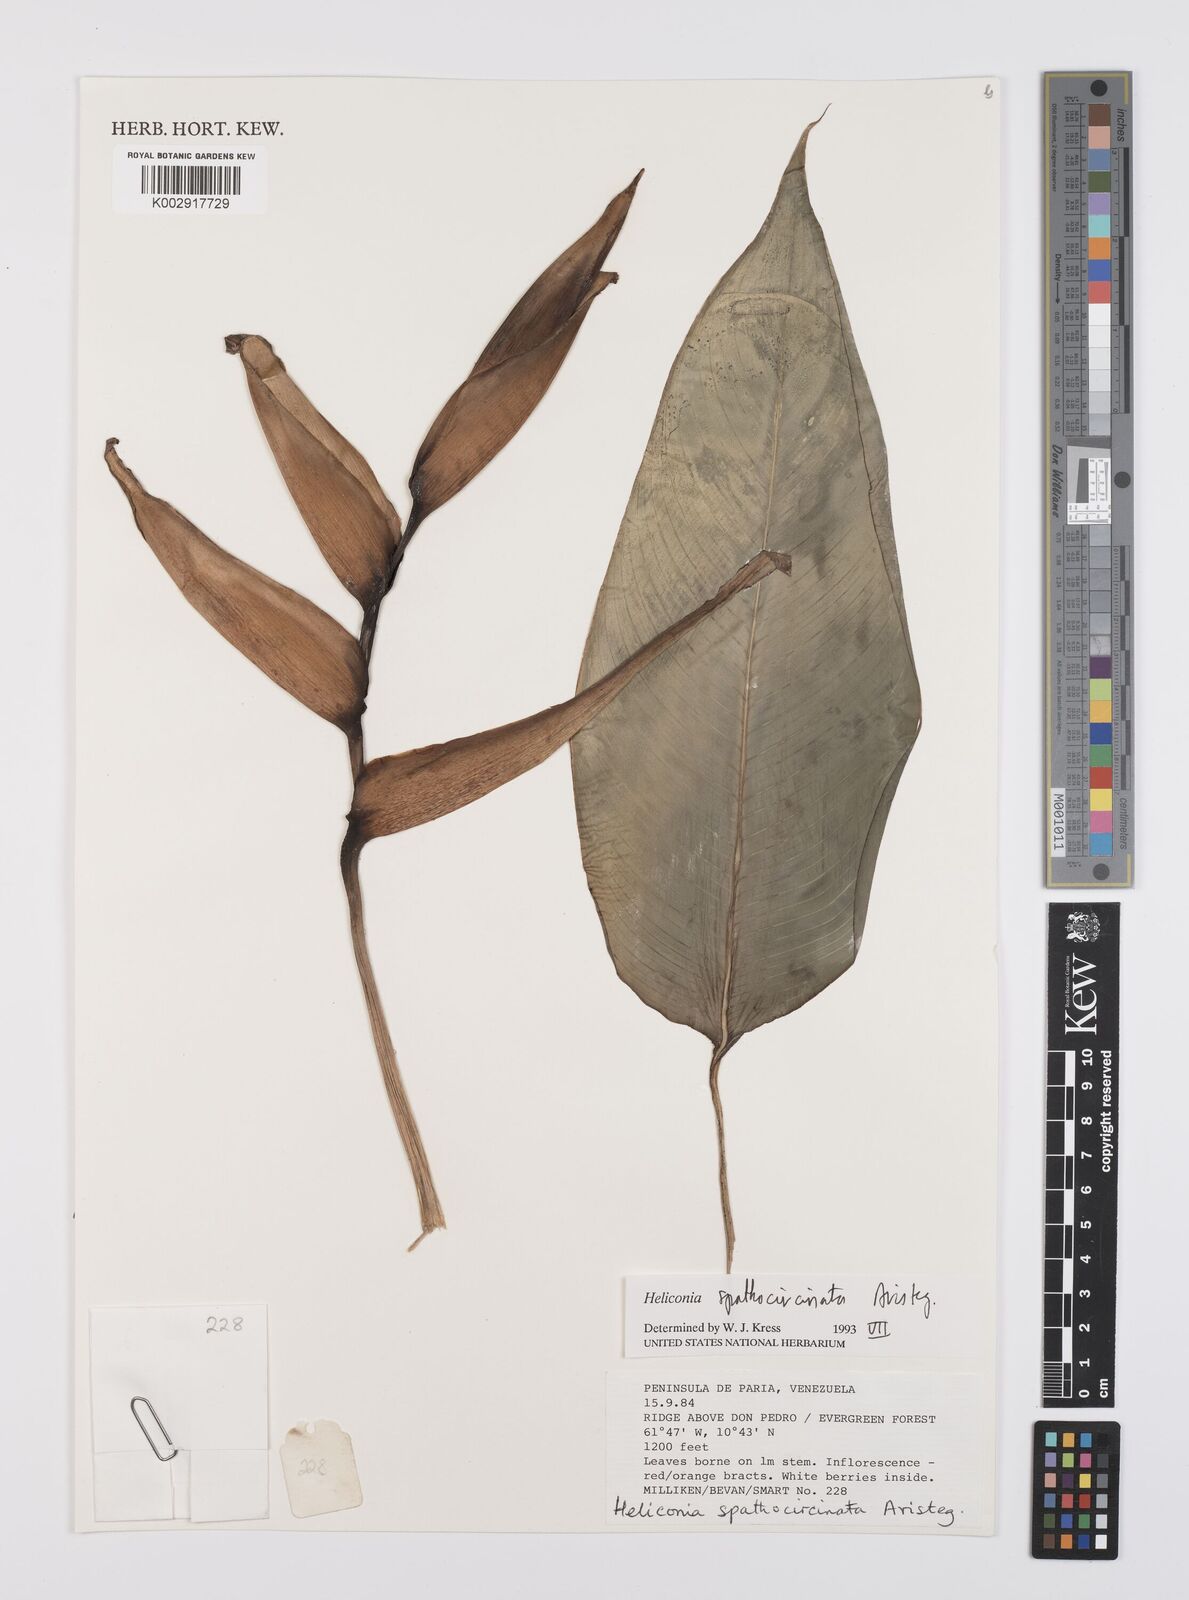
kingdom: Plantae
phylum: Tracheophyta
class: Liliopsida
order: Zingiberales
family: Heliconiaceae
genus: Heliconia
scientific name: Heliconia spathocircinata
